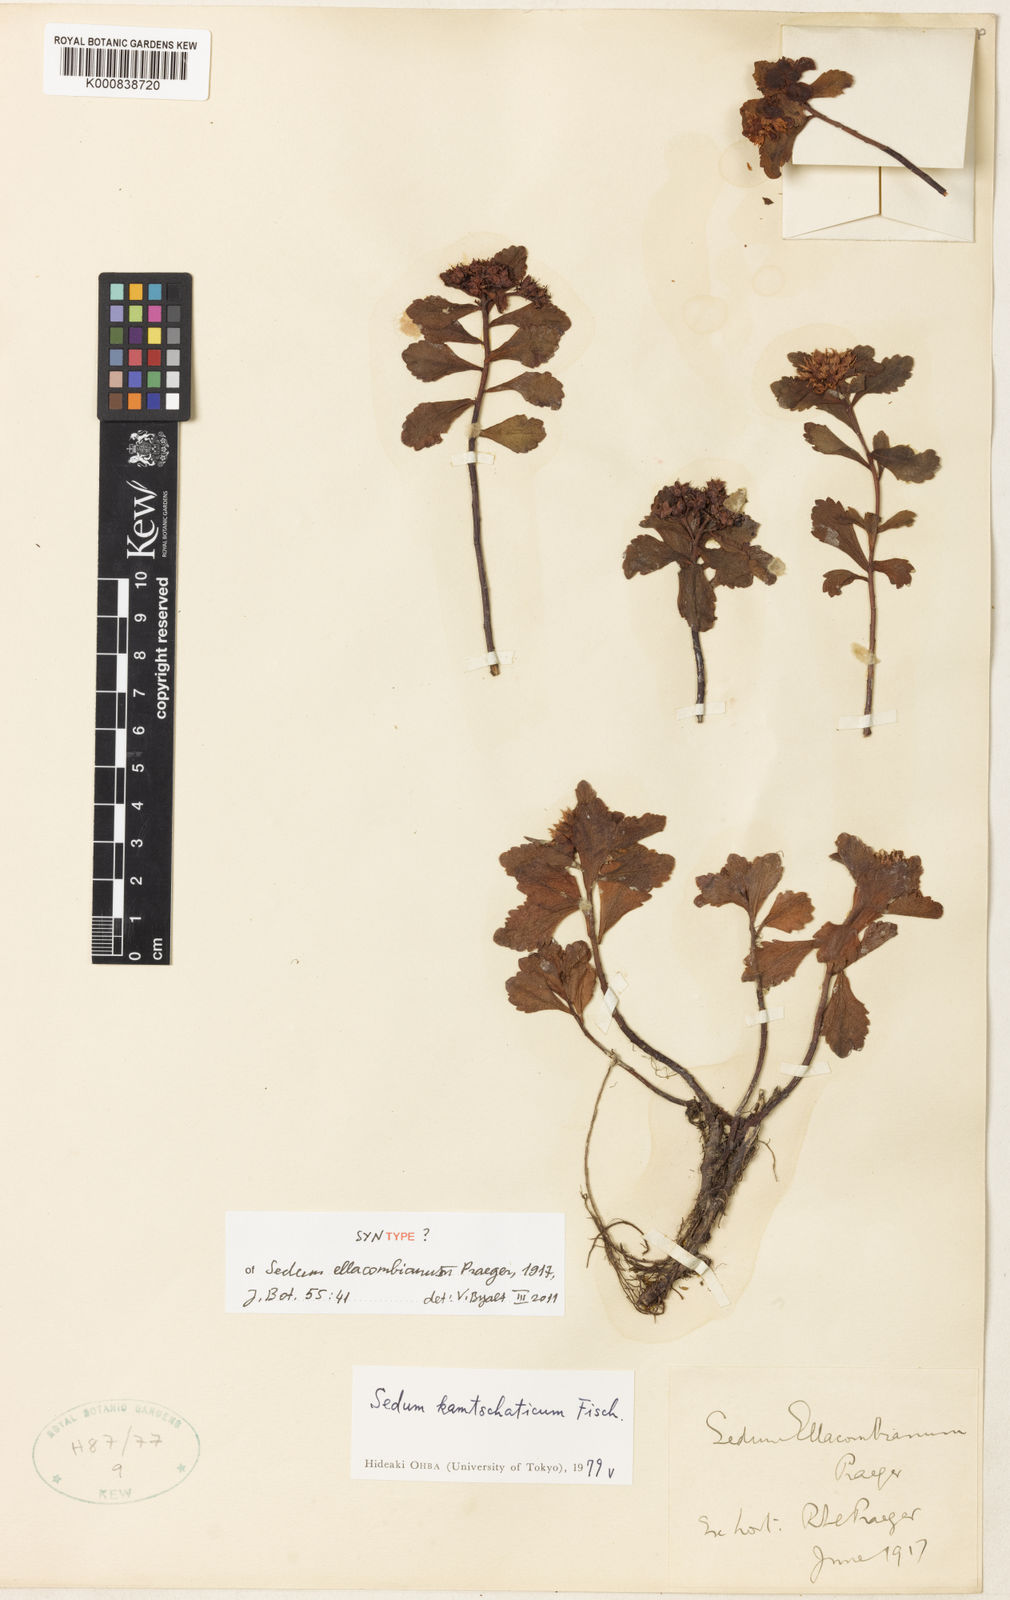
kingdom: Plantae
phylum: Tracheophyta
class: Magnoliopsida
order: Saxifragales
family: Crassulaceae
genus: Phedimus
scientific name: Phedimus aizoon
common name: Orpin aizoon
